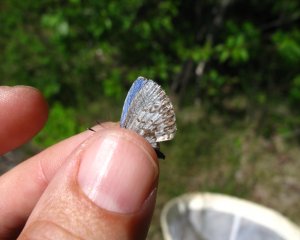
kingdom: Animalia
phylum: Arthropoda
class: Insecta
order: Lepidoptera
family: Lycaenidae
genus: Celastrina
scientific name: Celastrina lucia
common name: Northern Spring Azure
